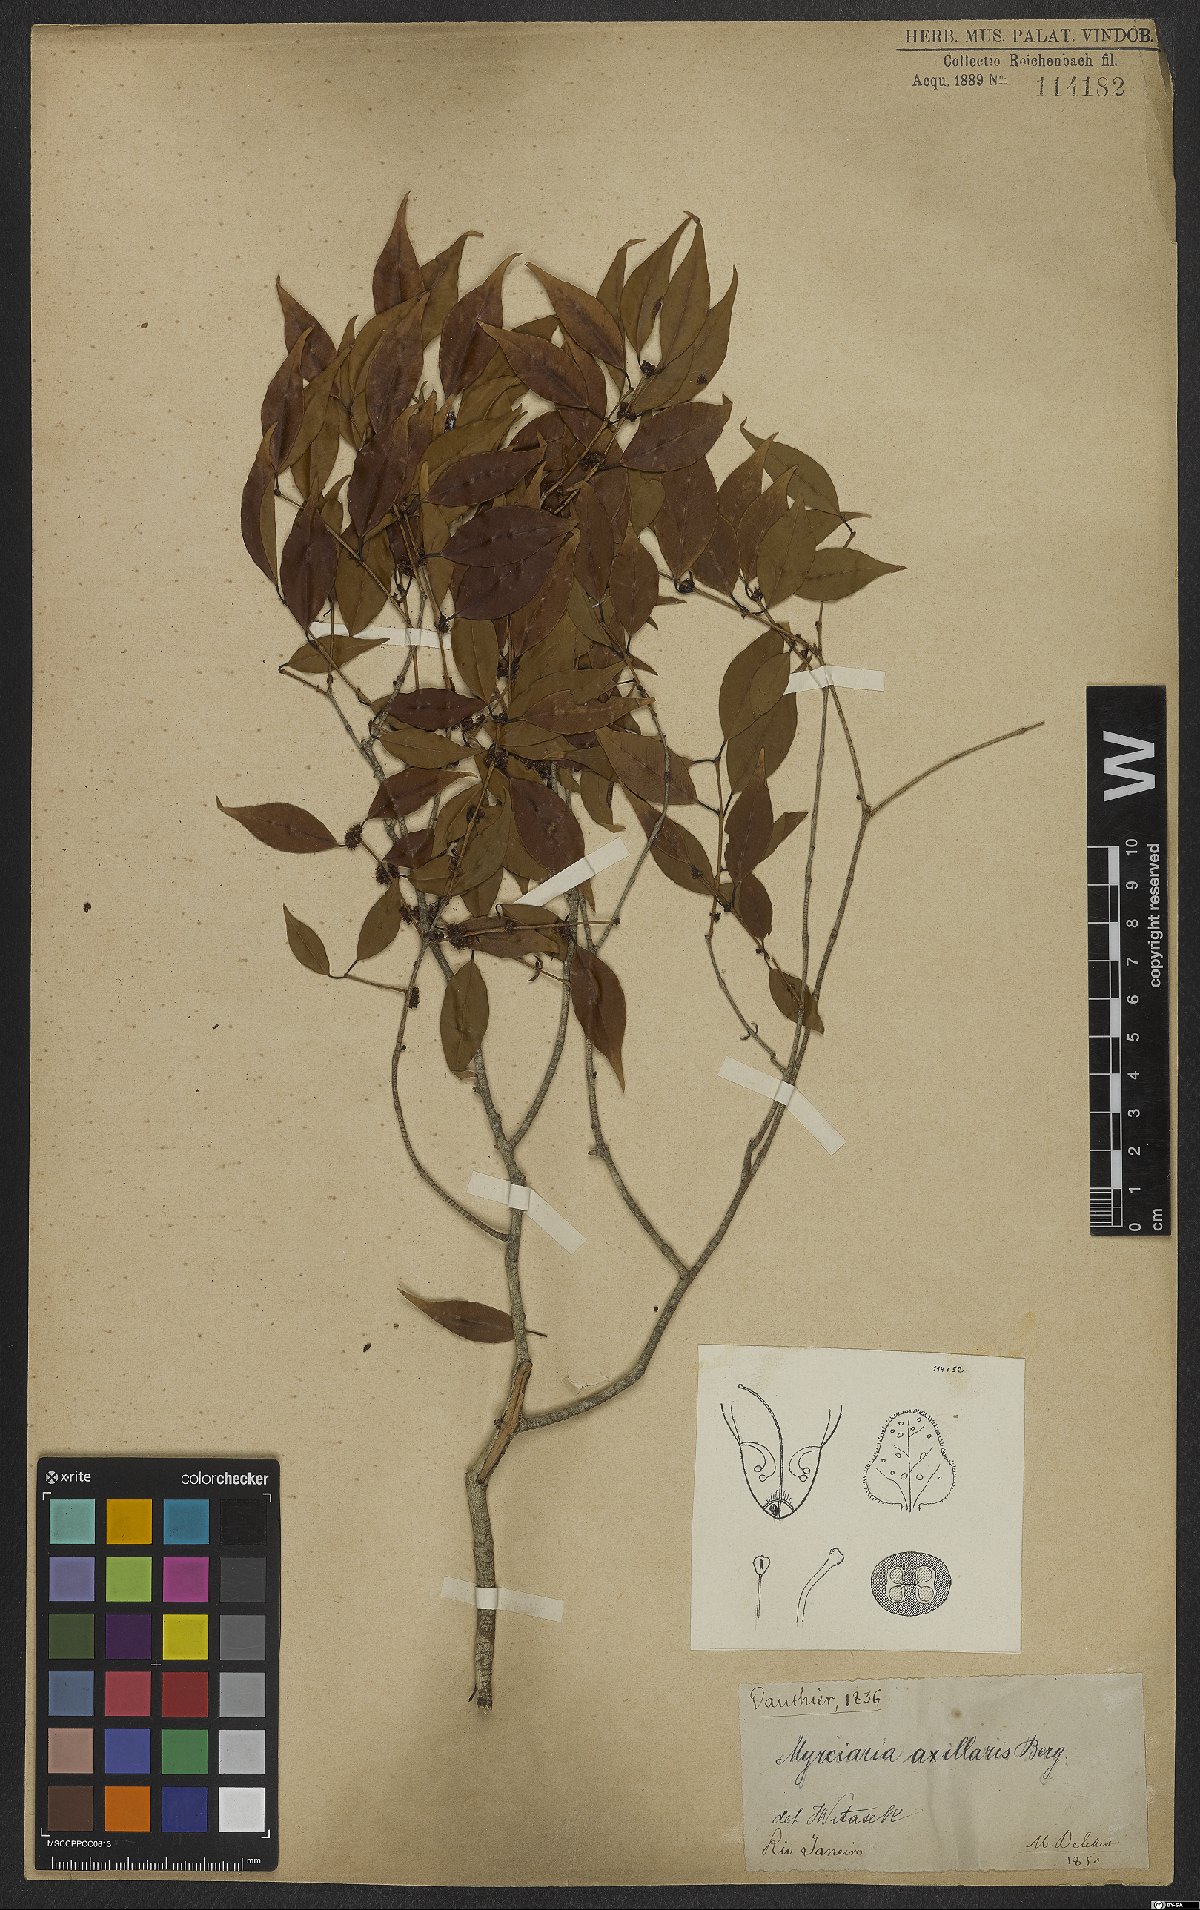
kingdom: Plantae
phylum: Tracheophyta
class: Magnoliopsida
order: Myrtales
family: Myrtaceae
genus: Myrciaria
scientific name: Myrciaria axillaris
